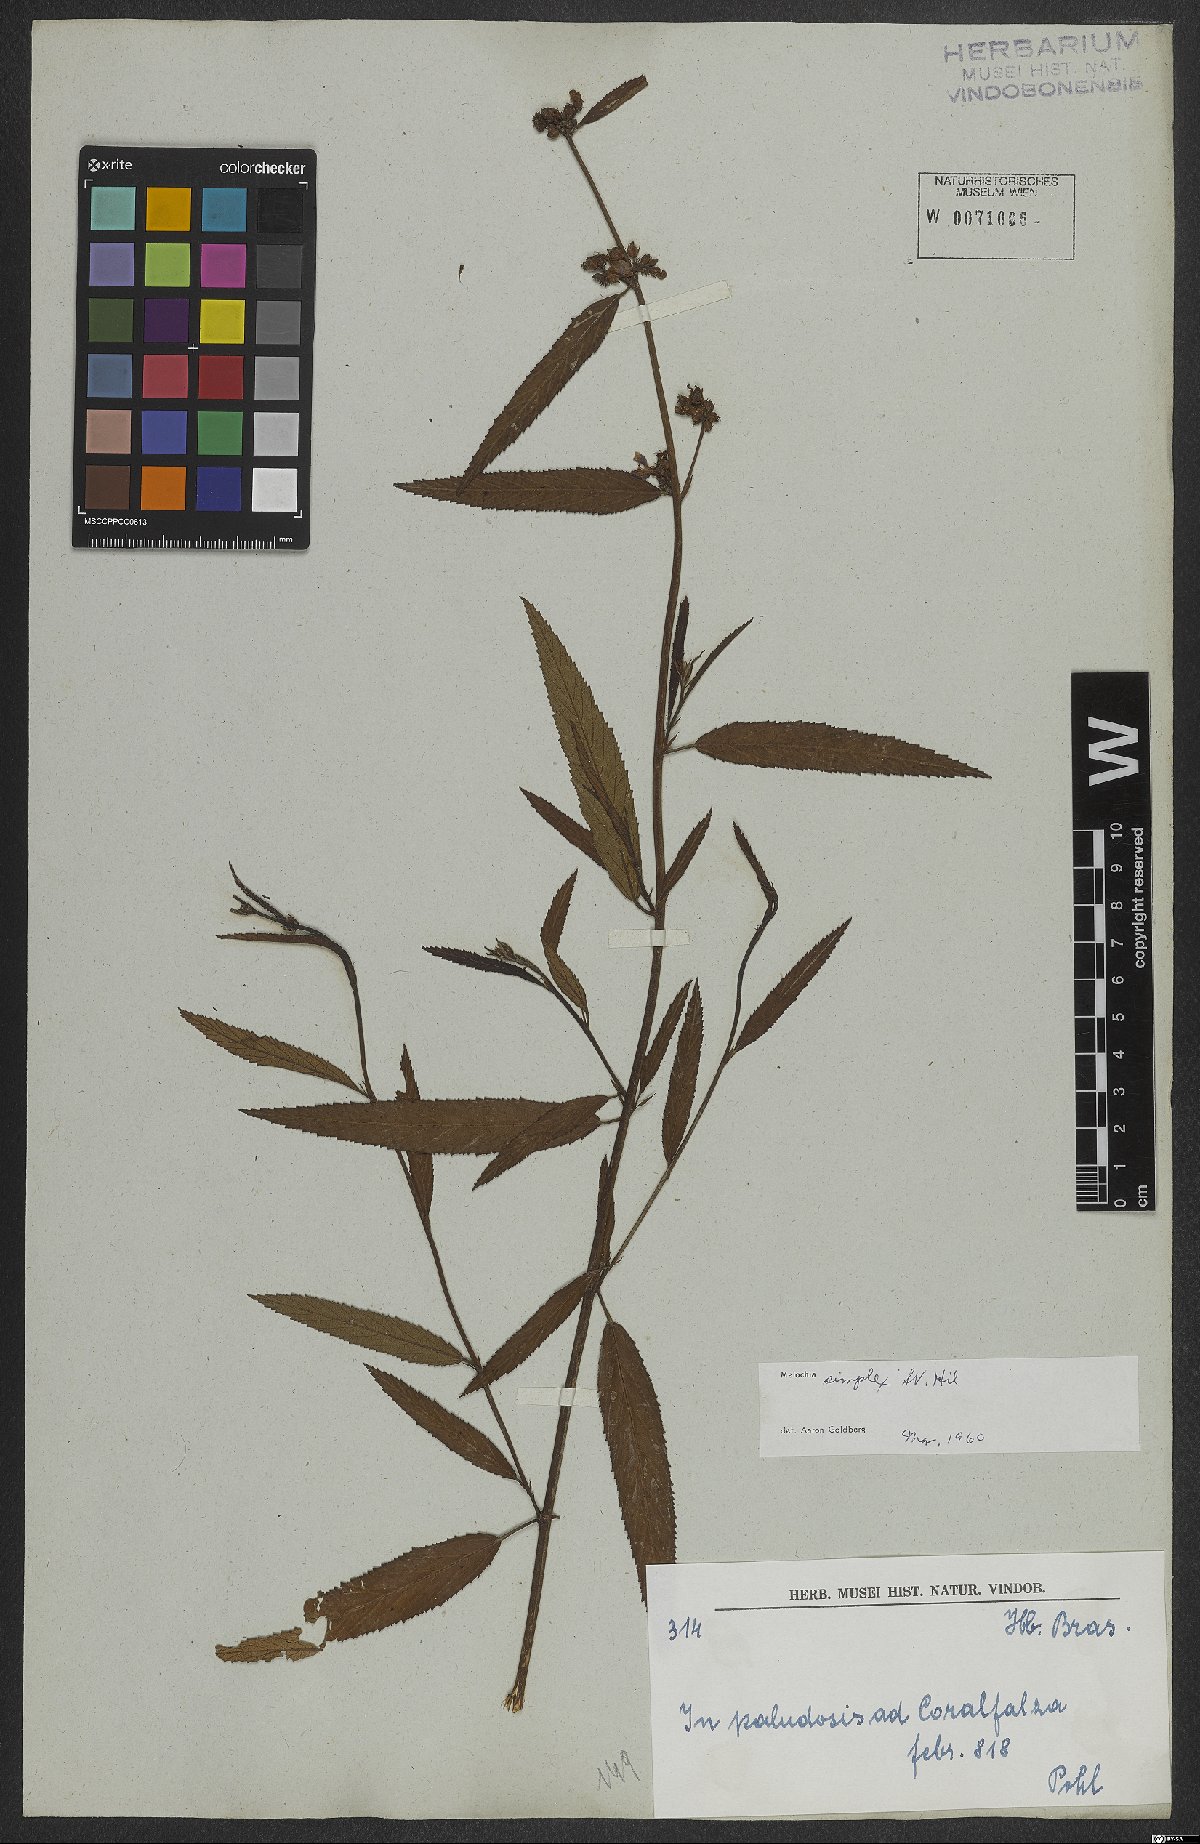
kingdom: Plantae
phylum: Tracheophyta
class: Magnoliopsida
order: Malvales
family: Malvaceae
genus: Melochia
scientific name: Melochia simplex
